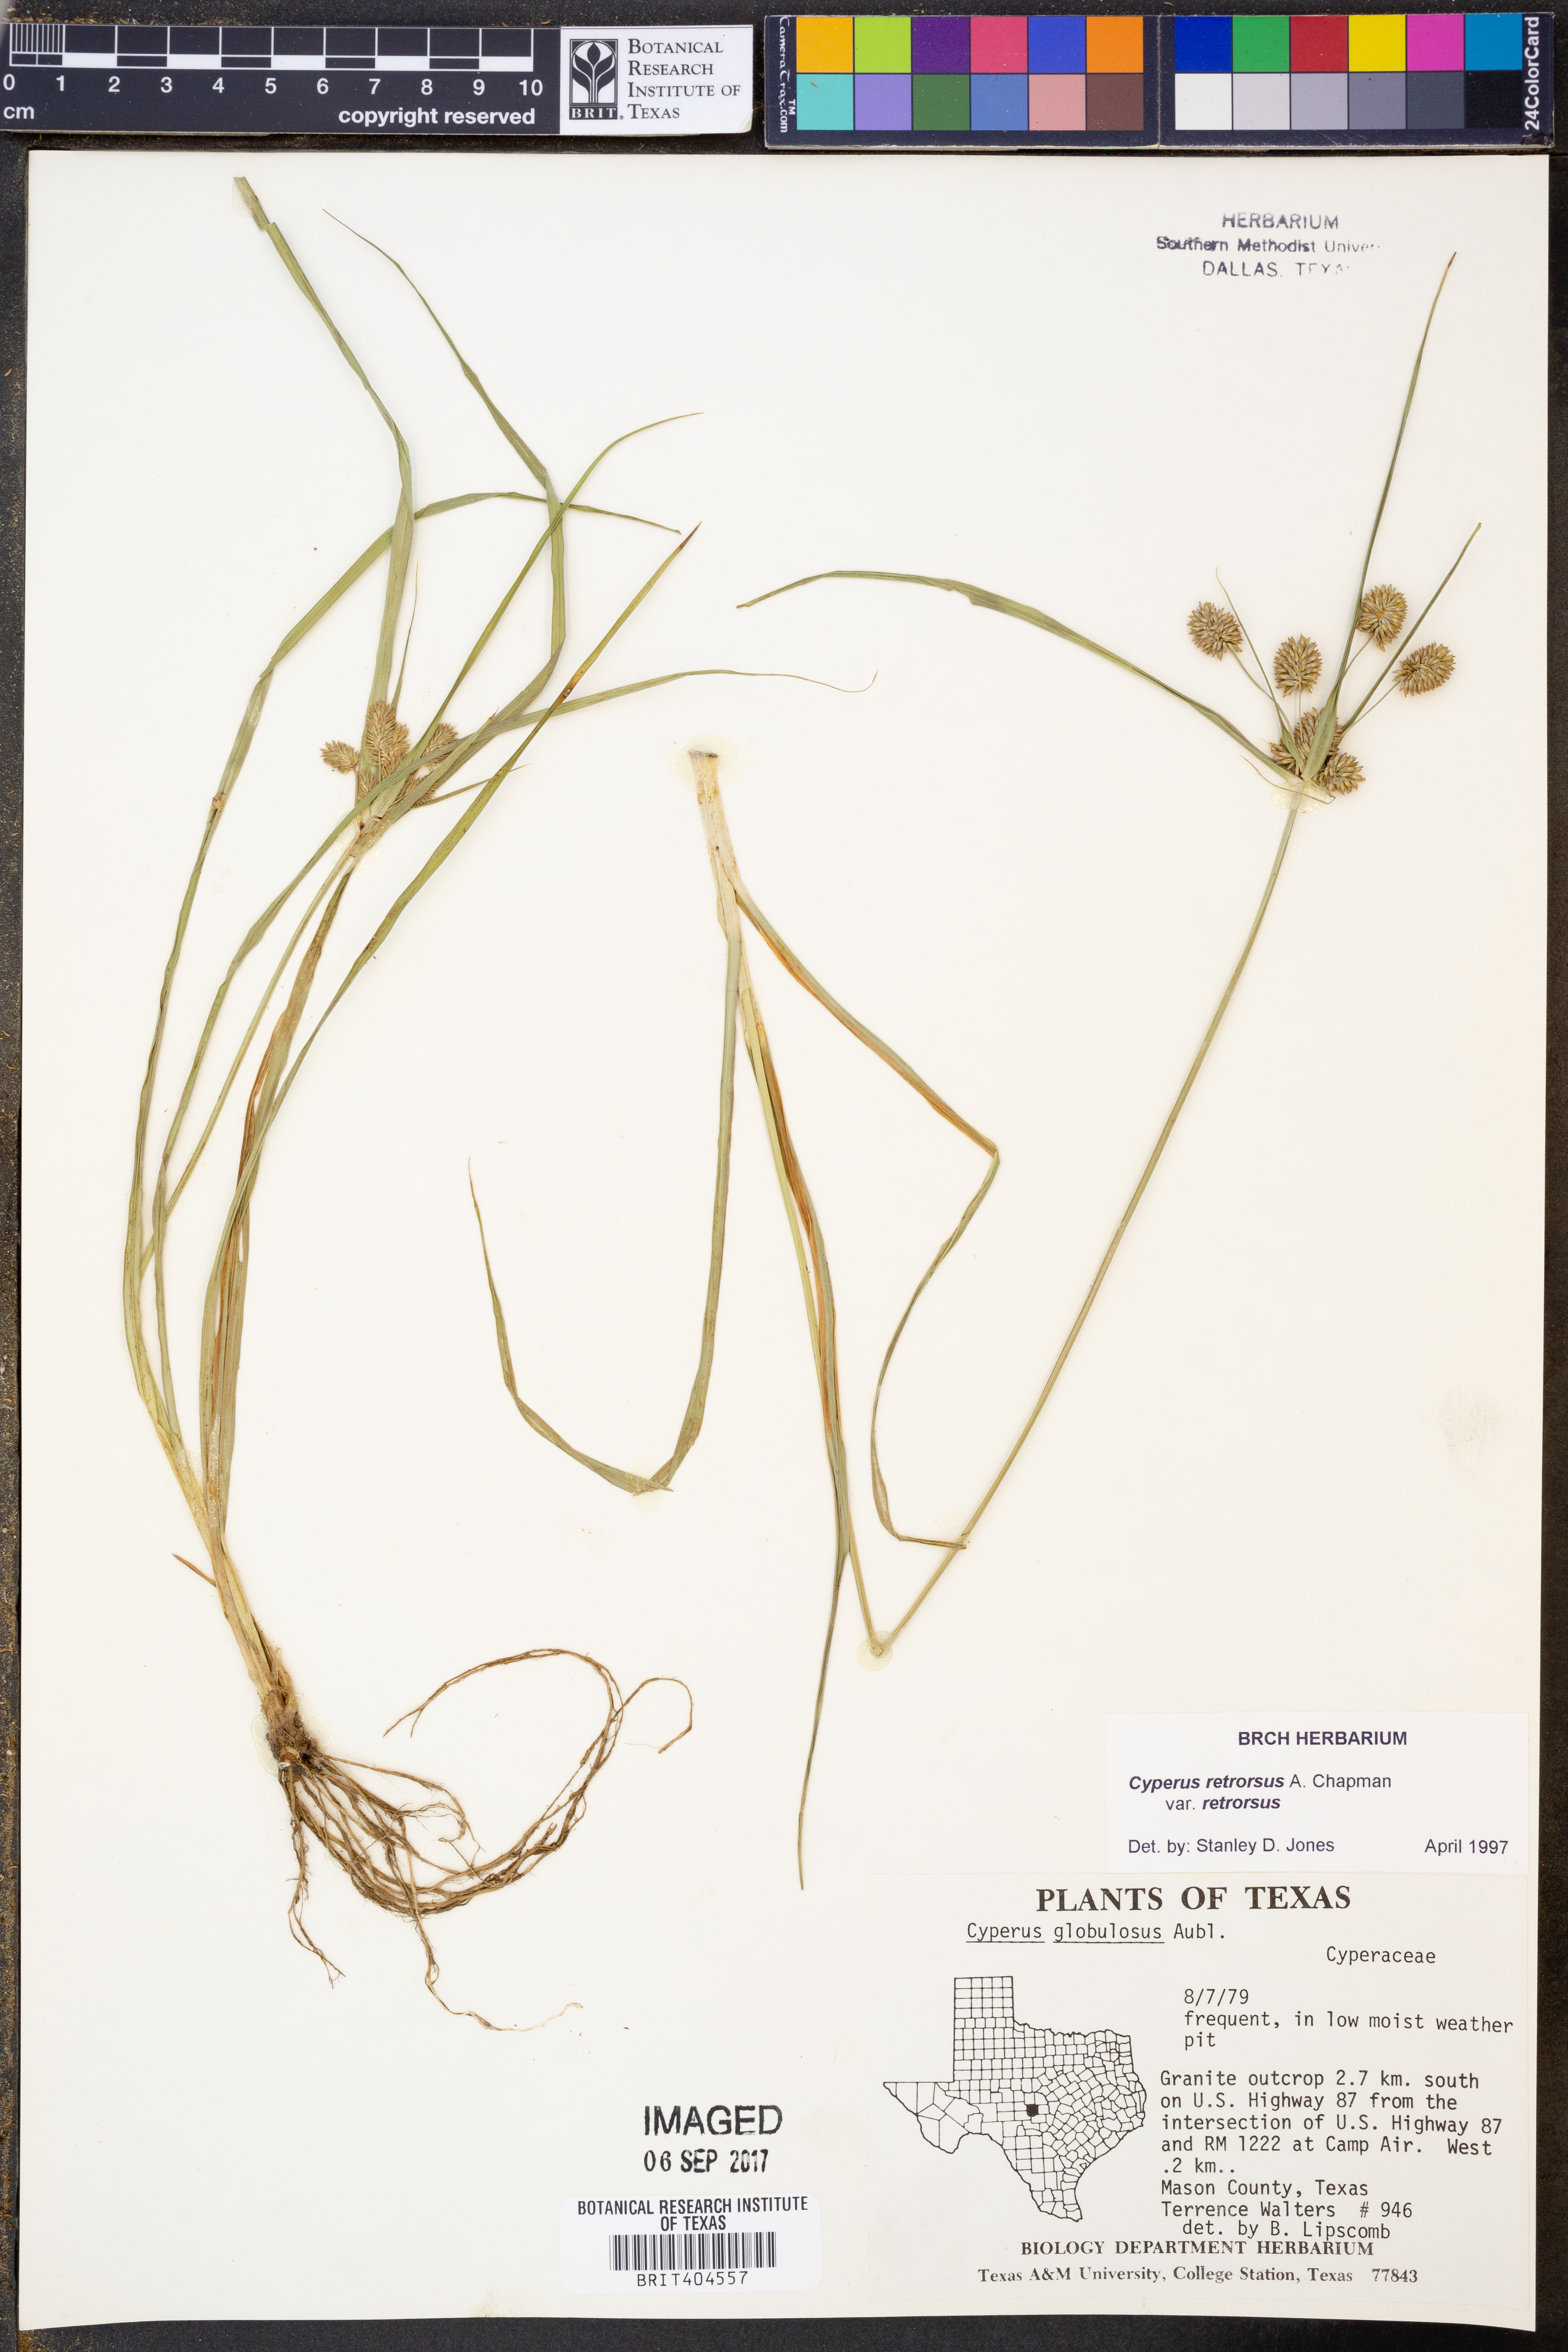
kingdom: Plantae
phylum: Tracheophyta
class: Liliopsida
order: Poales
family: Cyperaceae
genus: Cyperus
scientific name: Cyperus retrorsus
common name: Pinebarren flat sedge
